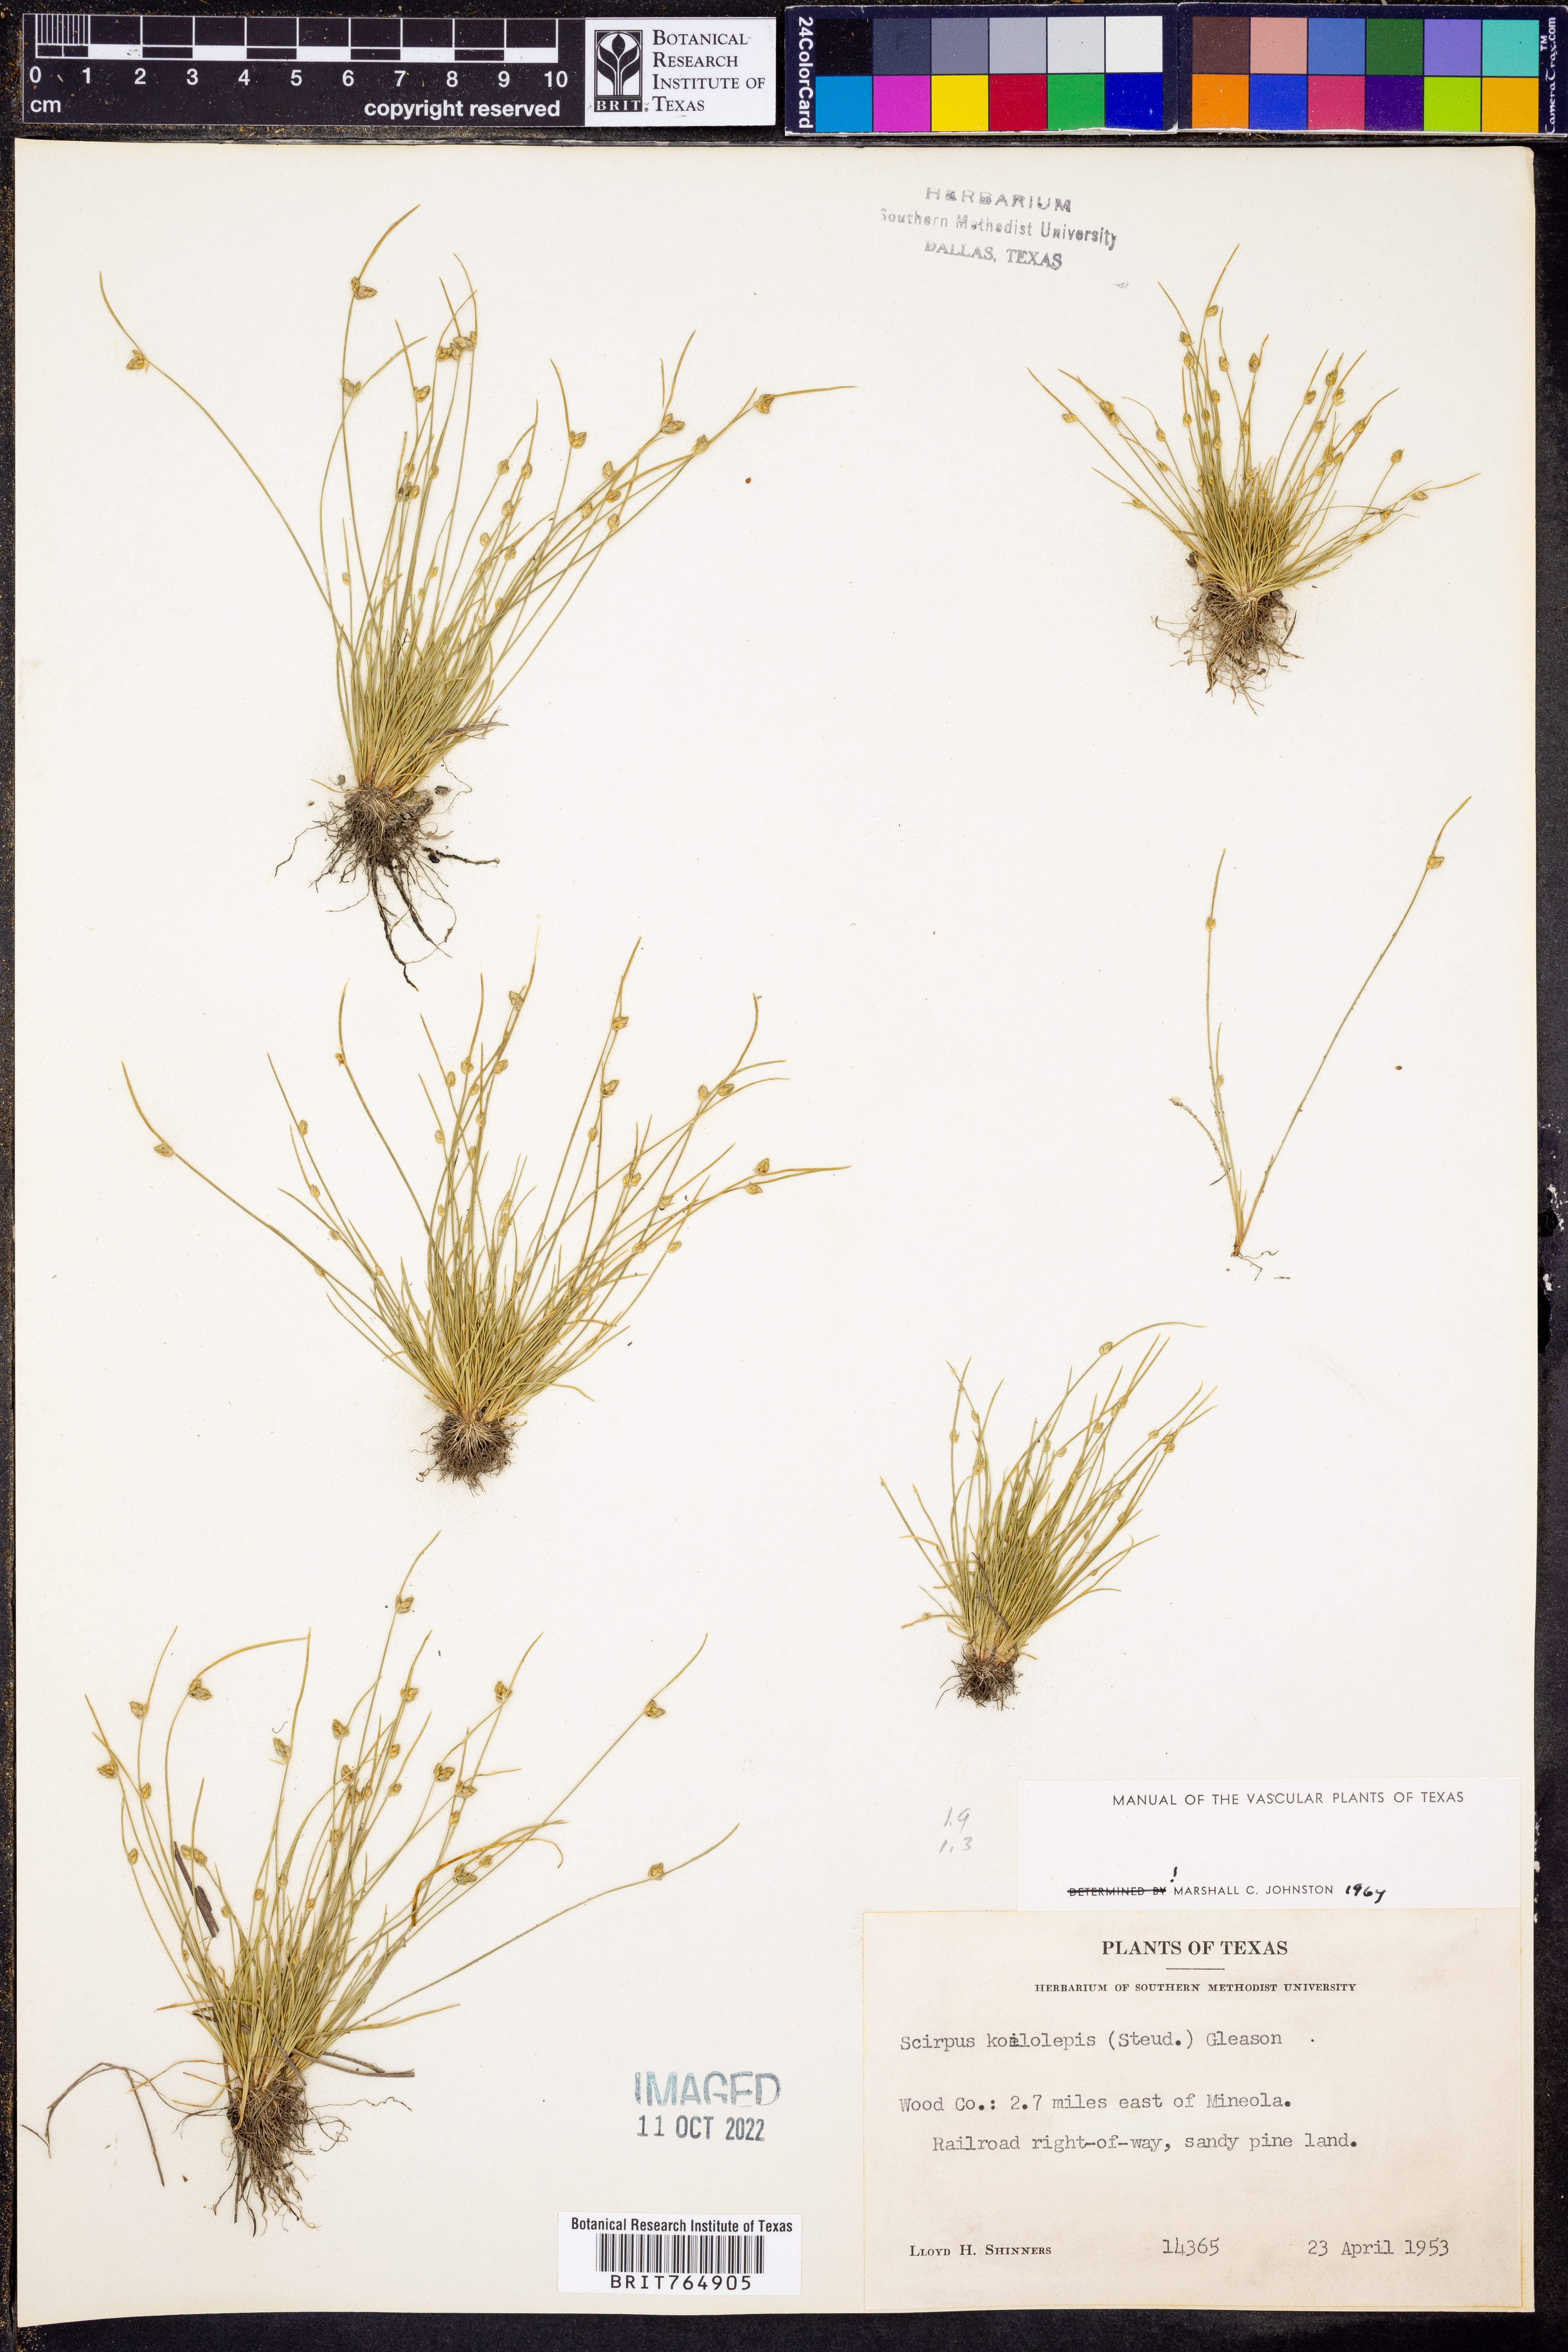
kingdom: Plantae
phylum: Tracheophyta
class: Liliopsida
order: Poales
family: Cyperaceae
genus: Isolepis
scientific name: Isolepis carinata
